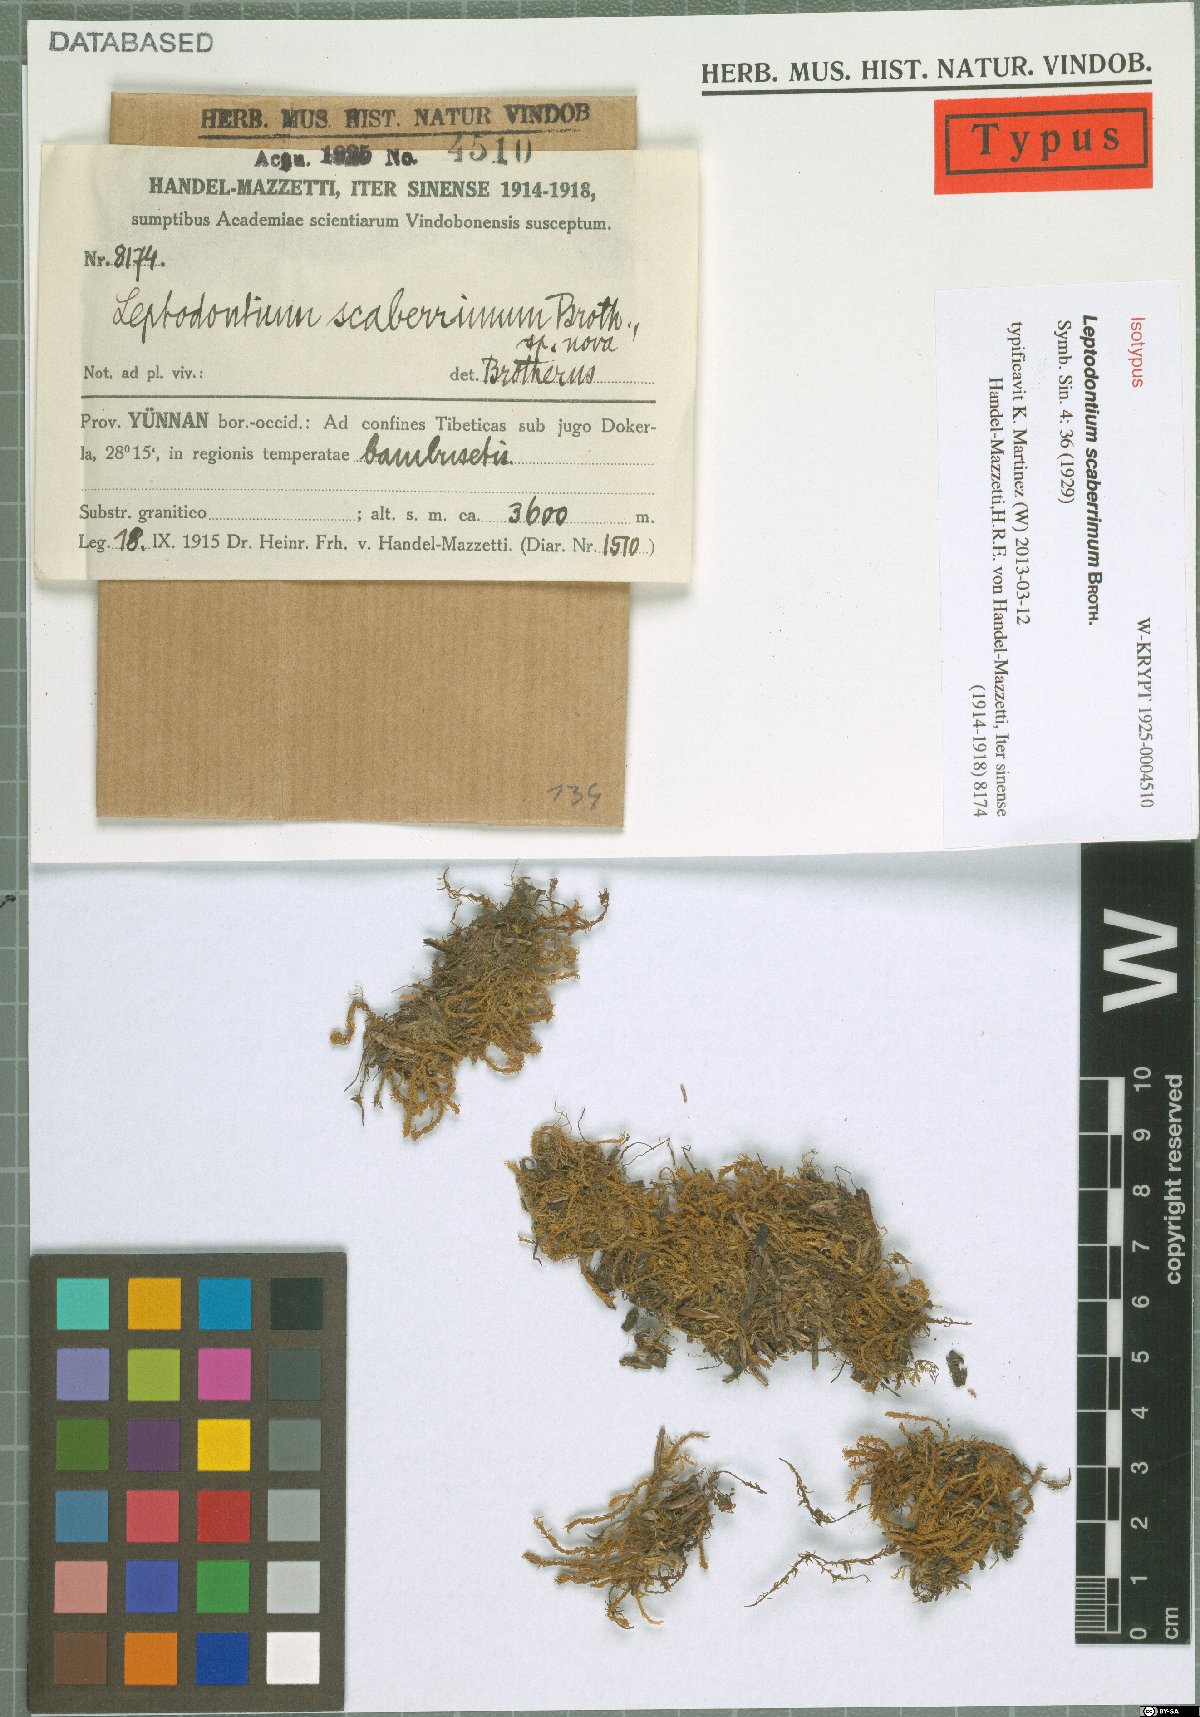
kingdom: Plantae
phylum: Bryophyta
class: Bryopsida
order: Pottiales
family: Pottiaceae
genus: Leptodontium
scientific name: Leptodontium scaberrimum
